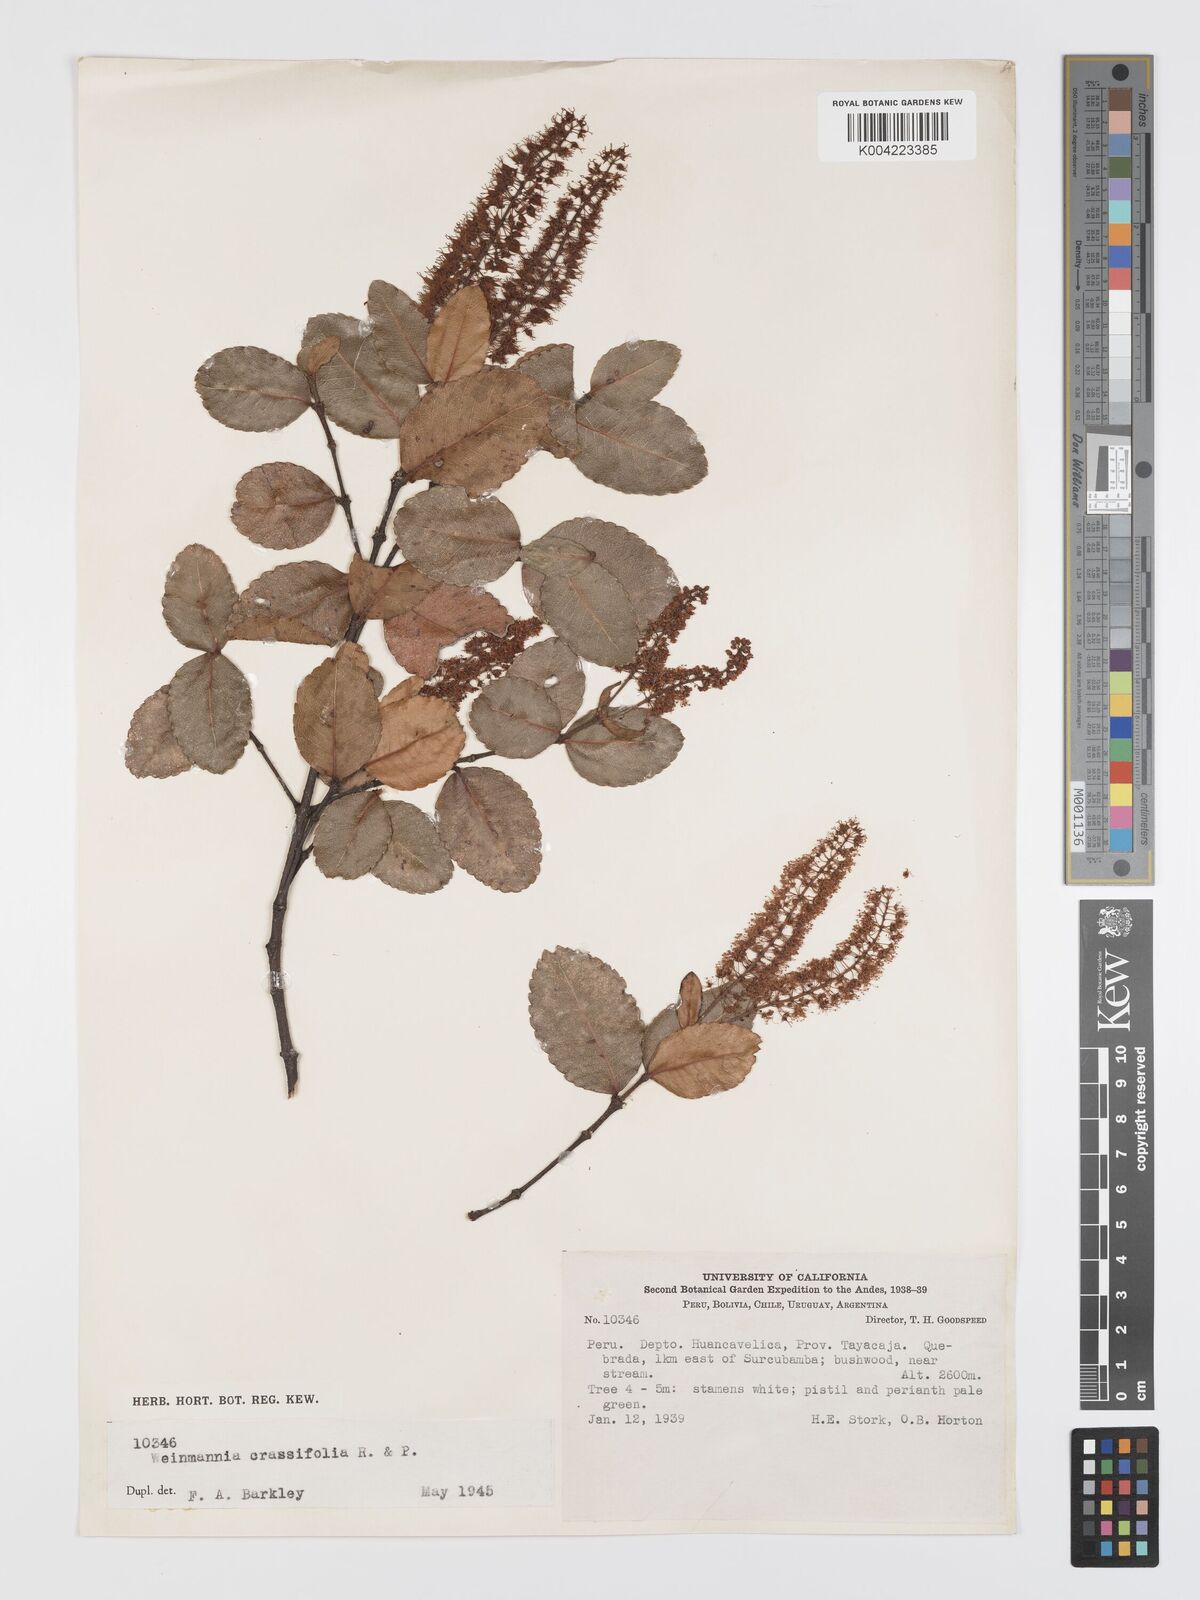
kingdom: Plantae
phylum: Tracheophyta
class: Magnoliopsida
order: Oxalidales
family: Cunoniaceae
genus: Weinmannia
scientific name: Weinmannia crassifolia
